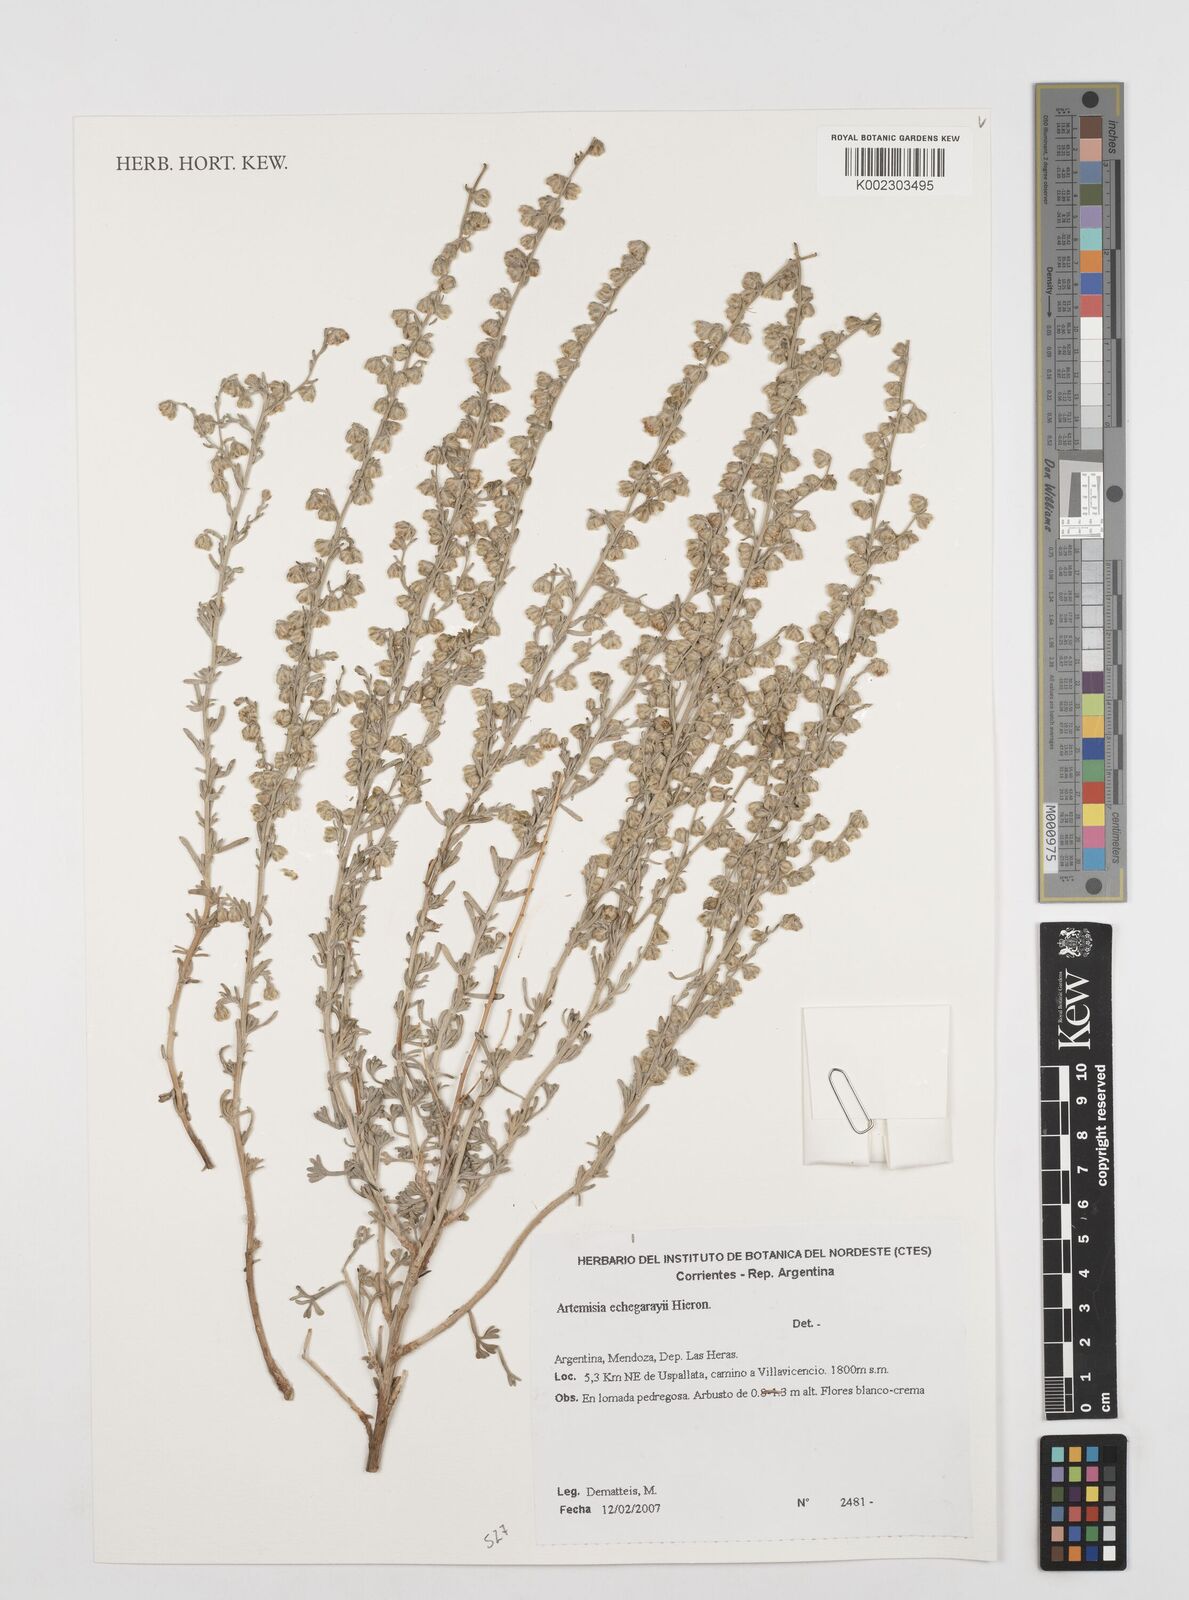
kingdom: Plantae
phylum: Tracheophyta
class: Magnoliopsida
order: Asterales
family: Asteraceae
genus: Artemisia
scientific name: Artemisia echegarayi
